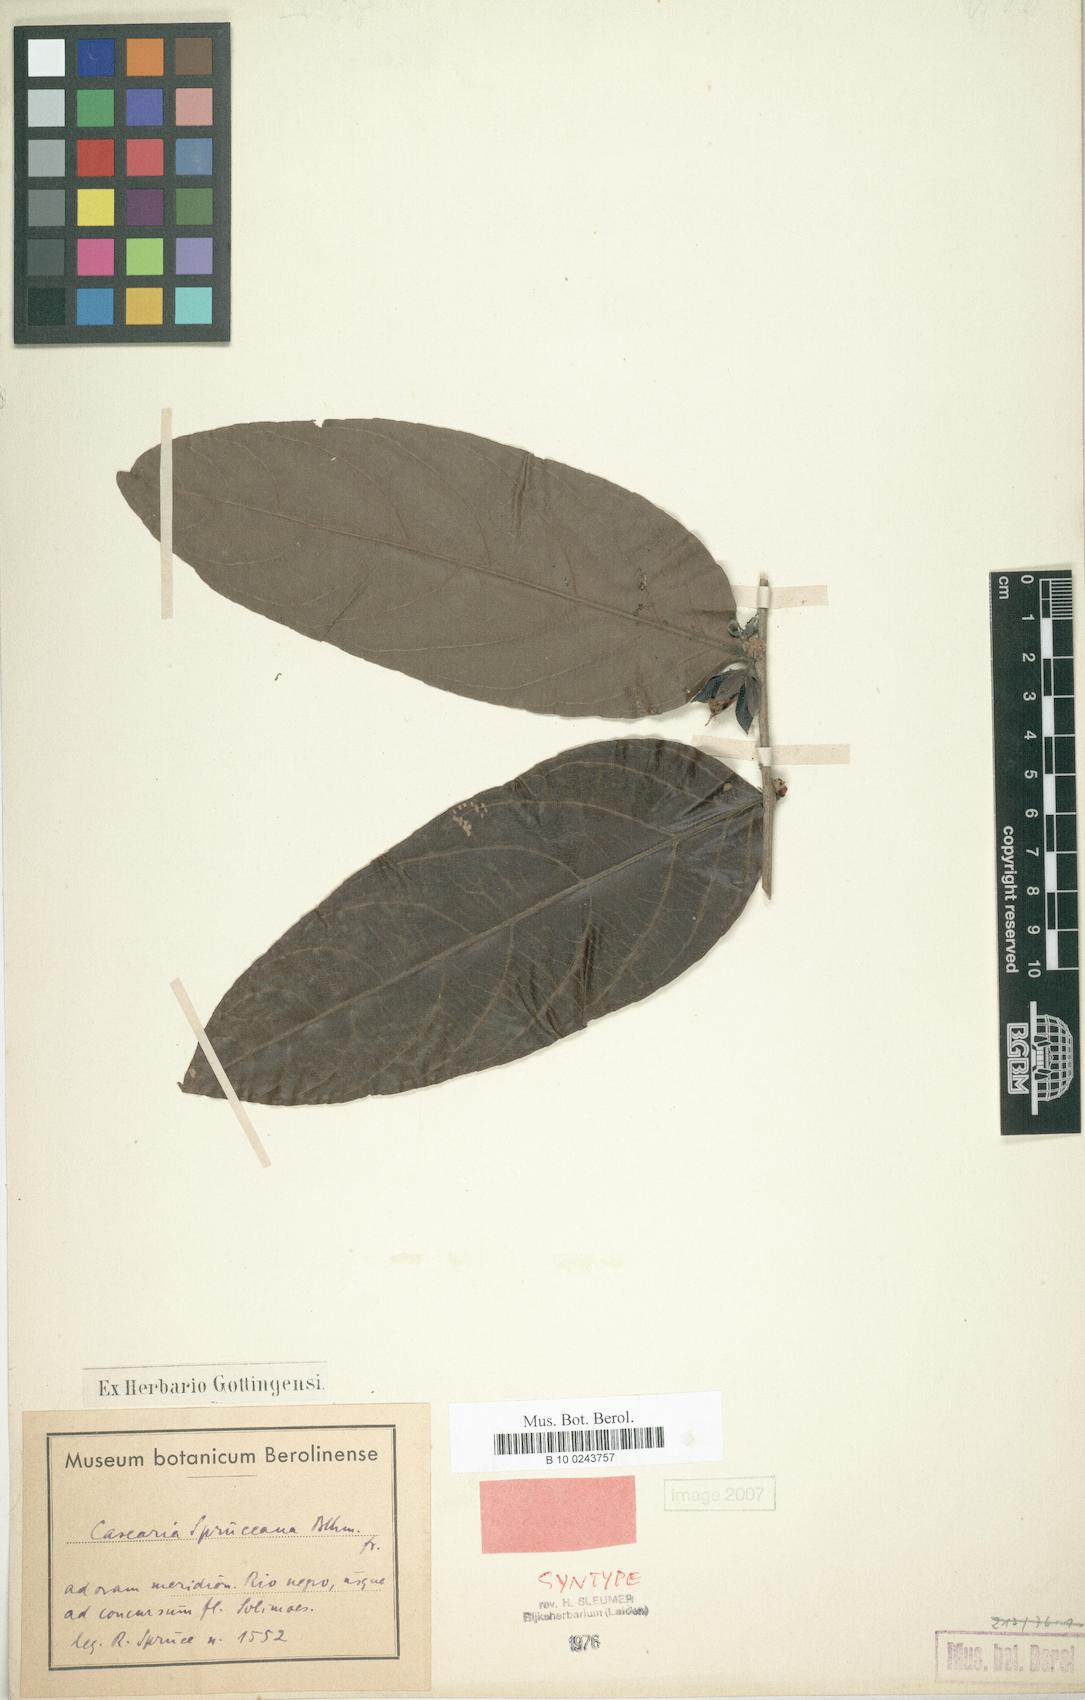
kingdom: Plantae
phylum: Tracheophyta
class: Magnoliopsida
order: Malpighiales
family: Salicaceae
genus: Piparea
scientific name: Piparea spruceana
